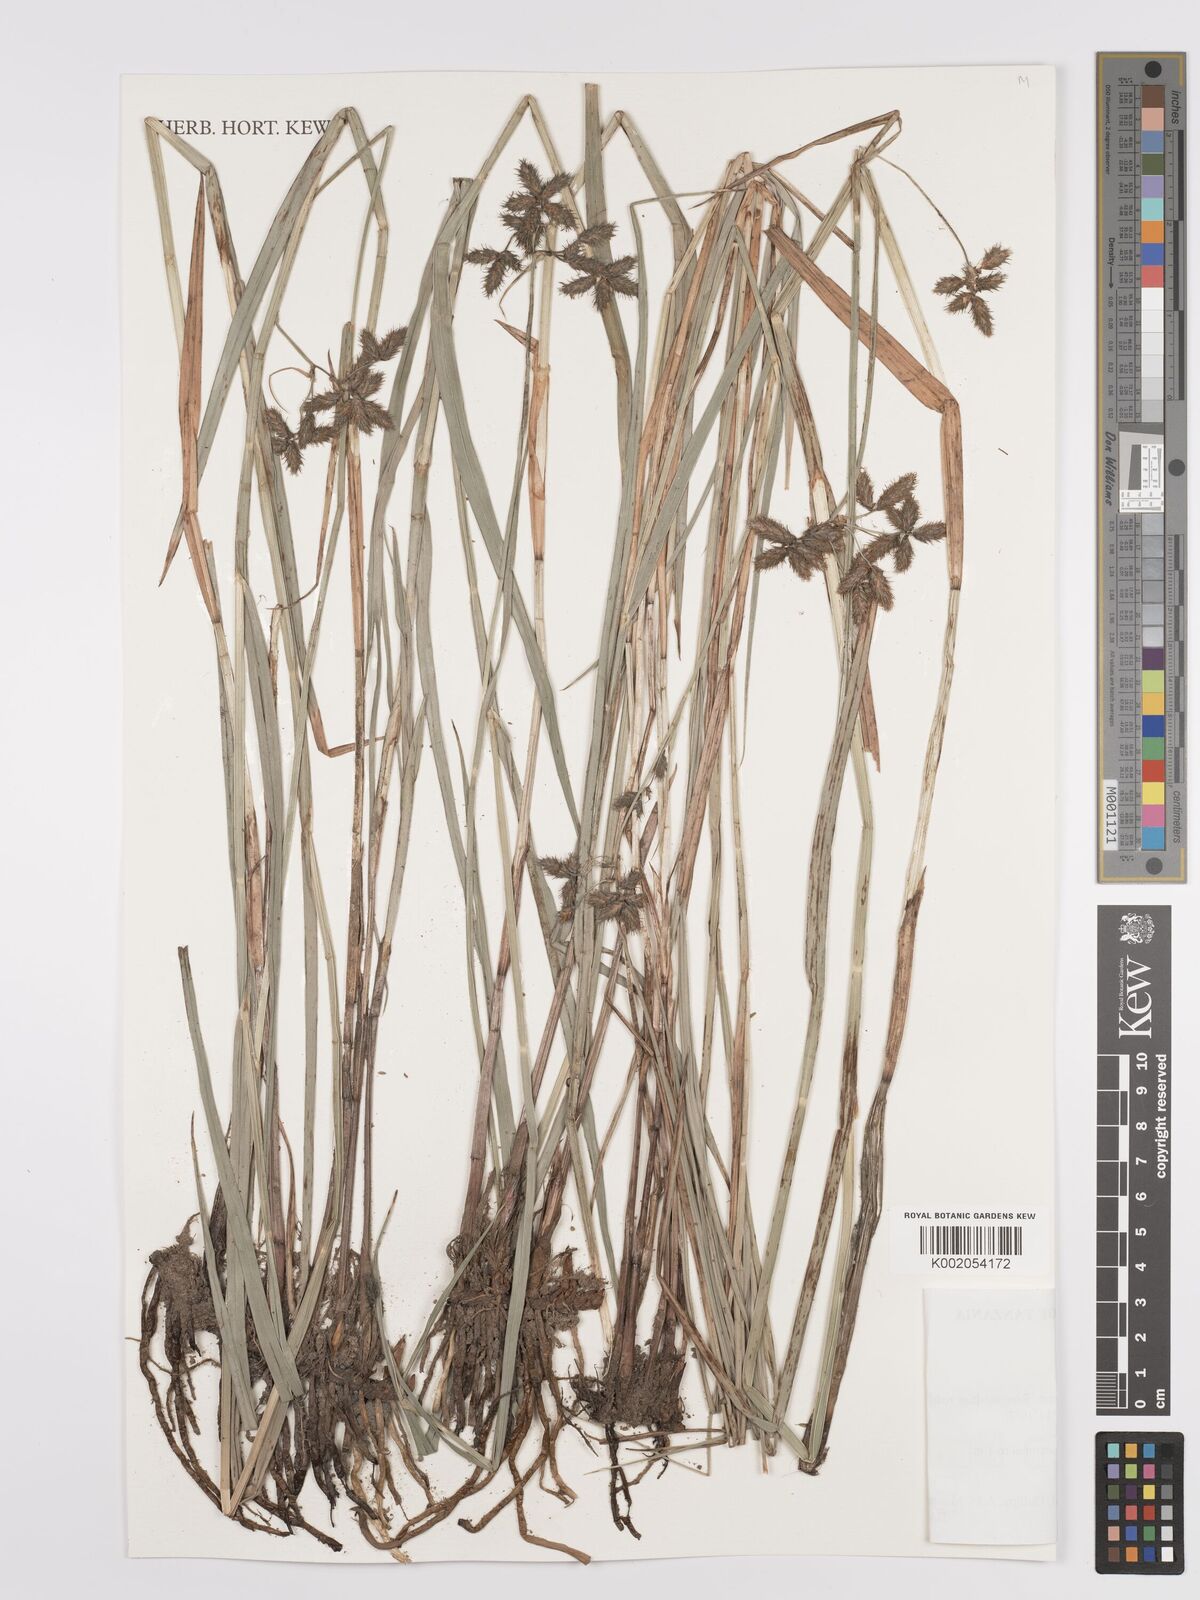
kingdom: Plantae
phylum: Tracheophyta
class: Liliopsida
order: Poales
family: Cyperaceae
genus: Fuirena
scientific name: Fuirena pachyrrhiza
